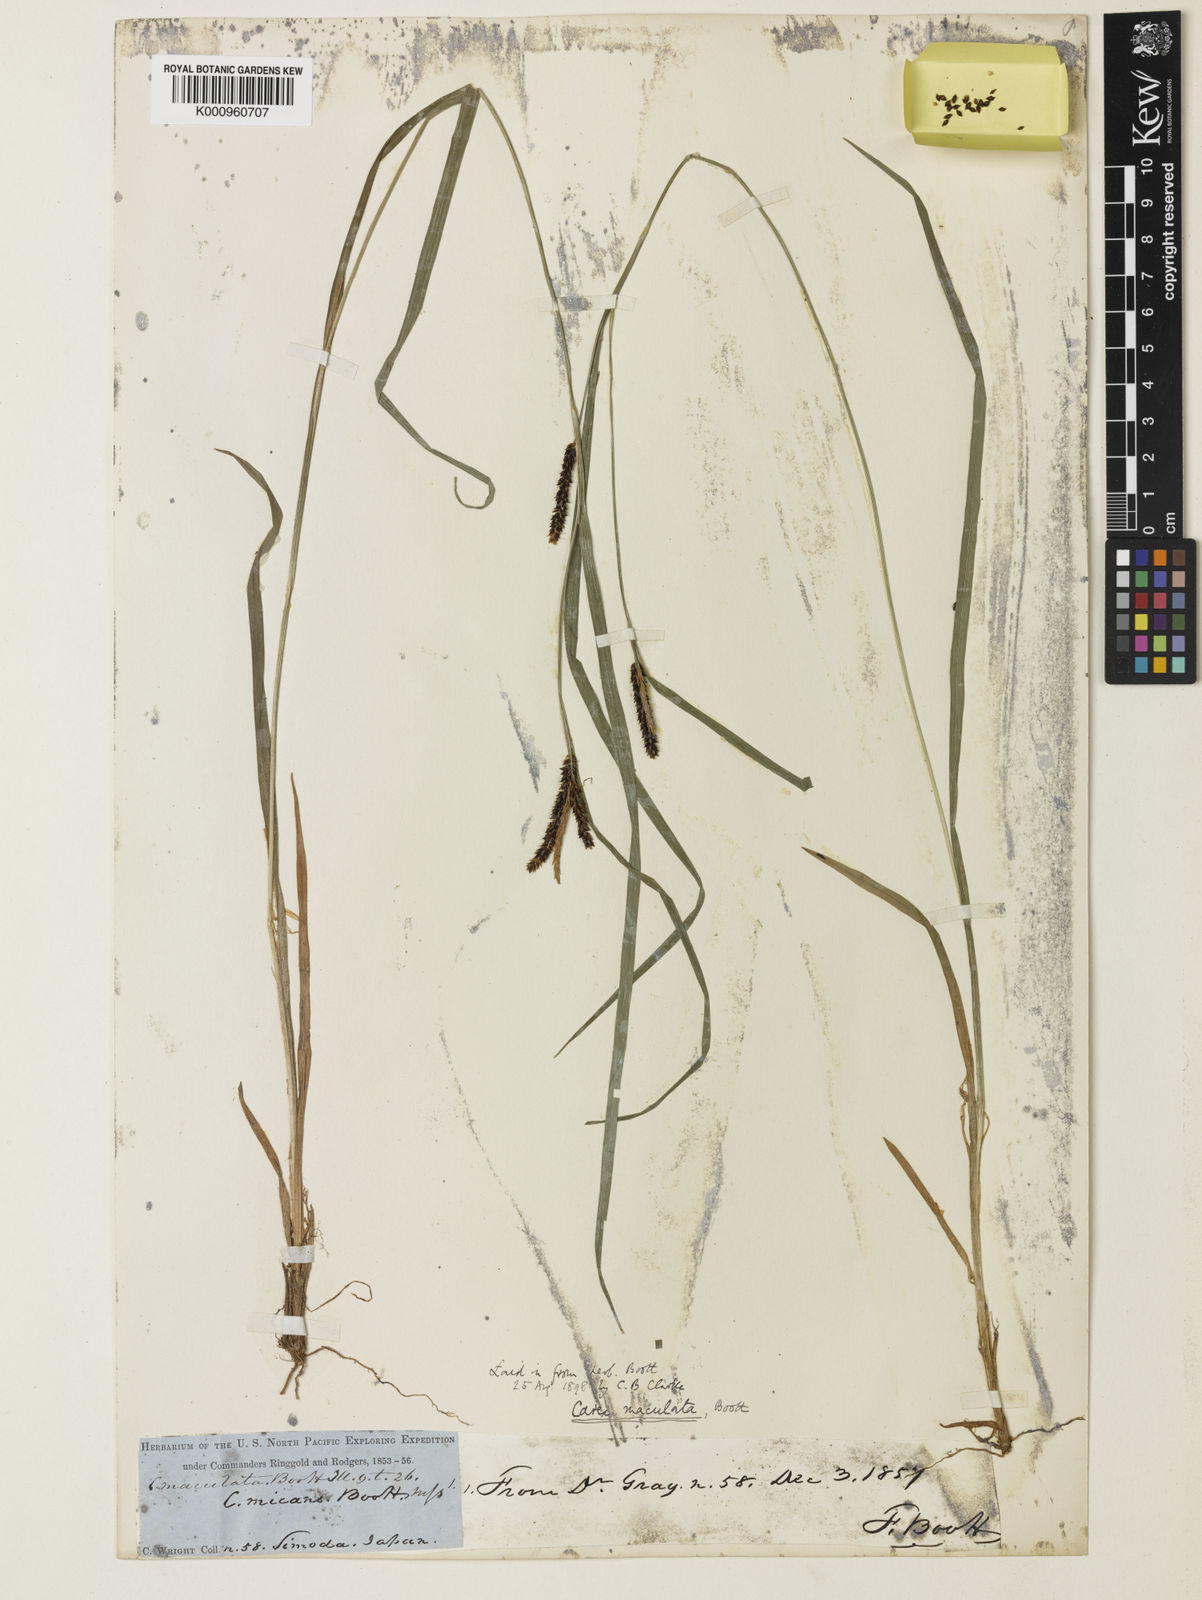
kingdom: Plantae
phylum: Tracheophyta
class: Liliopsida
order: Poales
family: Cyperaceae
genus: Carex
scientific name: Carex maculata
